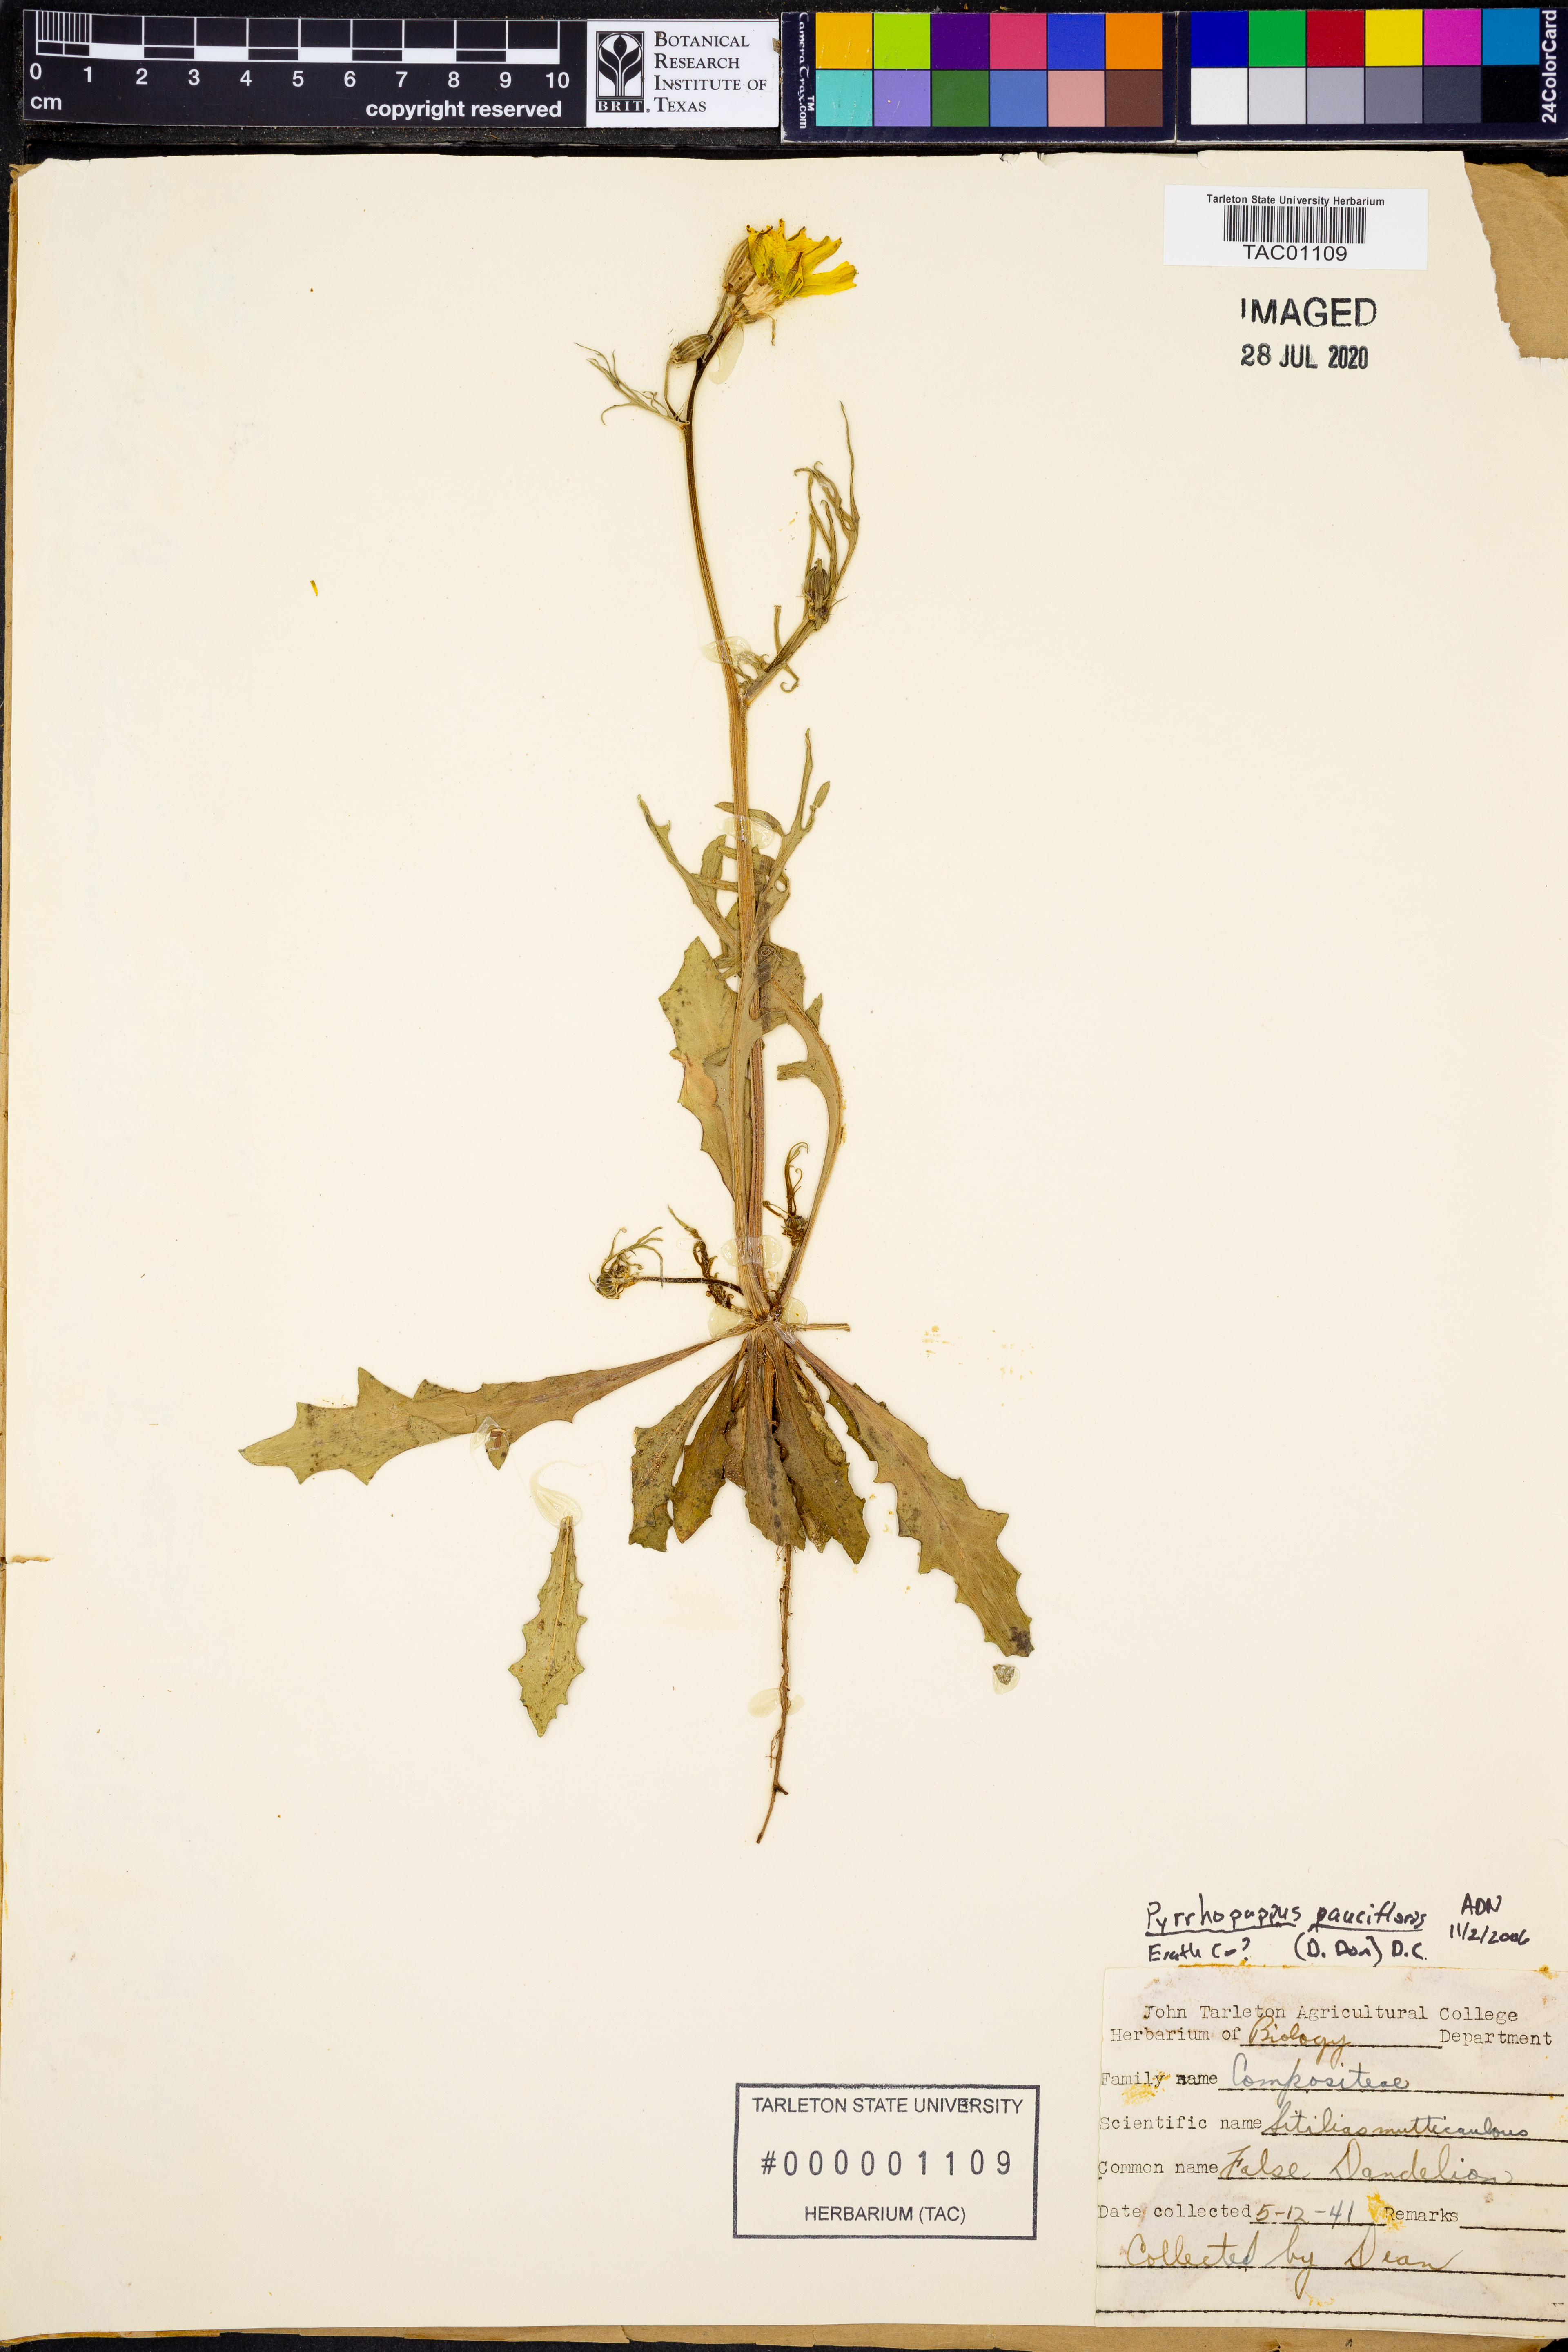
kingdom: Plantae
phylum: Tracheophyta
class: Magnoliopsida
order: Asterales
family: Asteraceae
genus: Pyrrhopappus
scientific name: Pyrrhopappus pauciflorus
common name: Texas false dandelion
